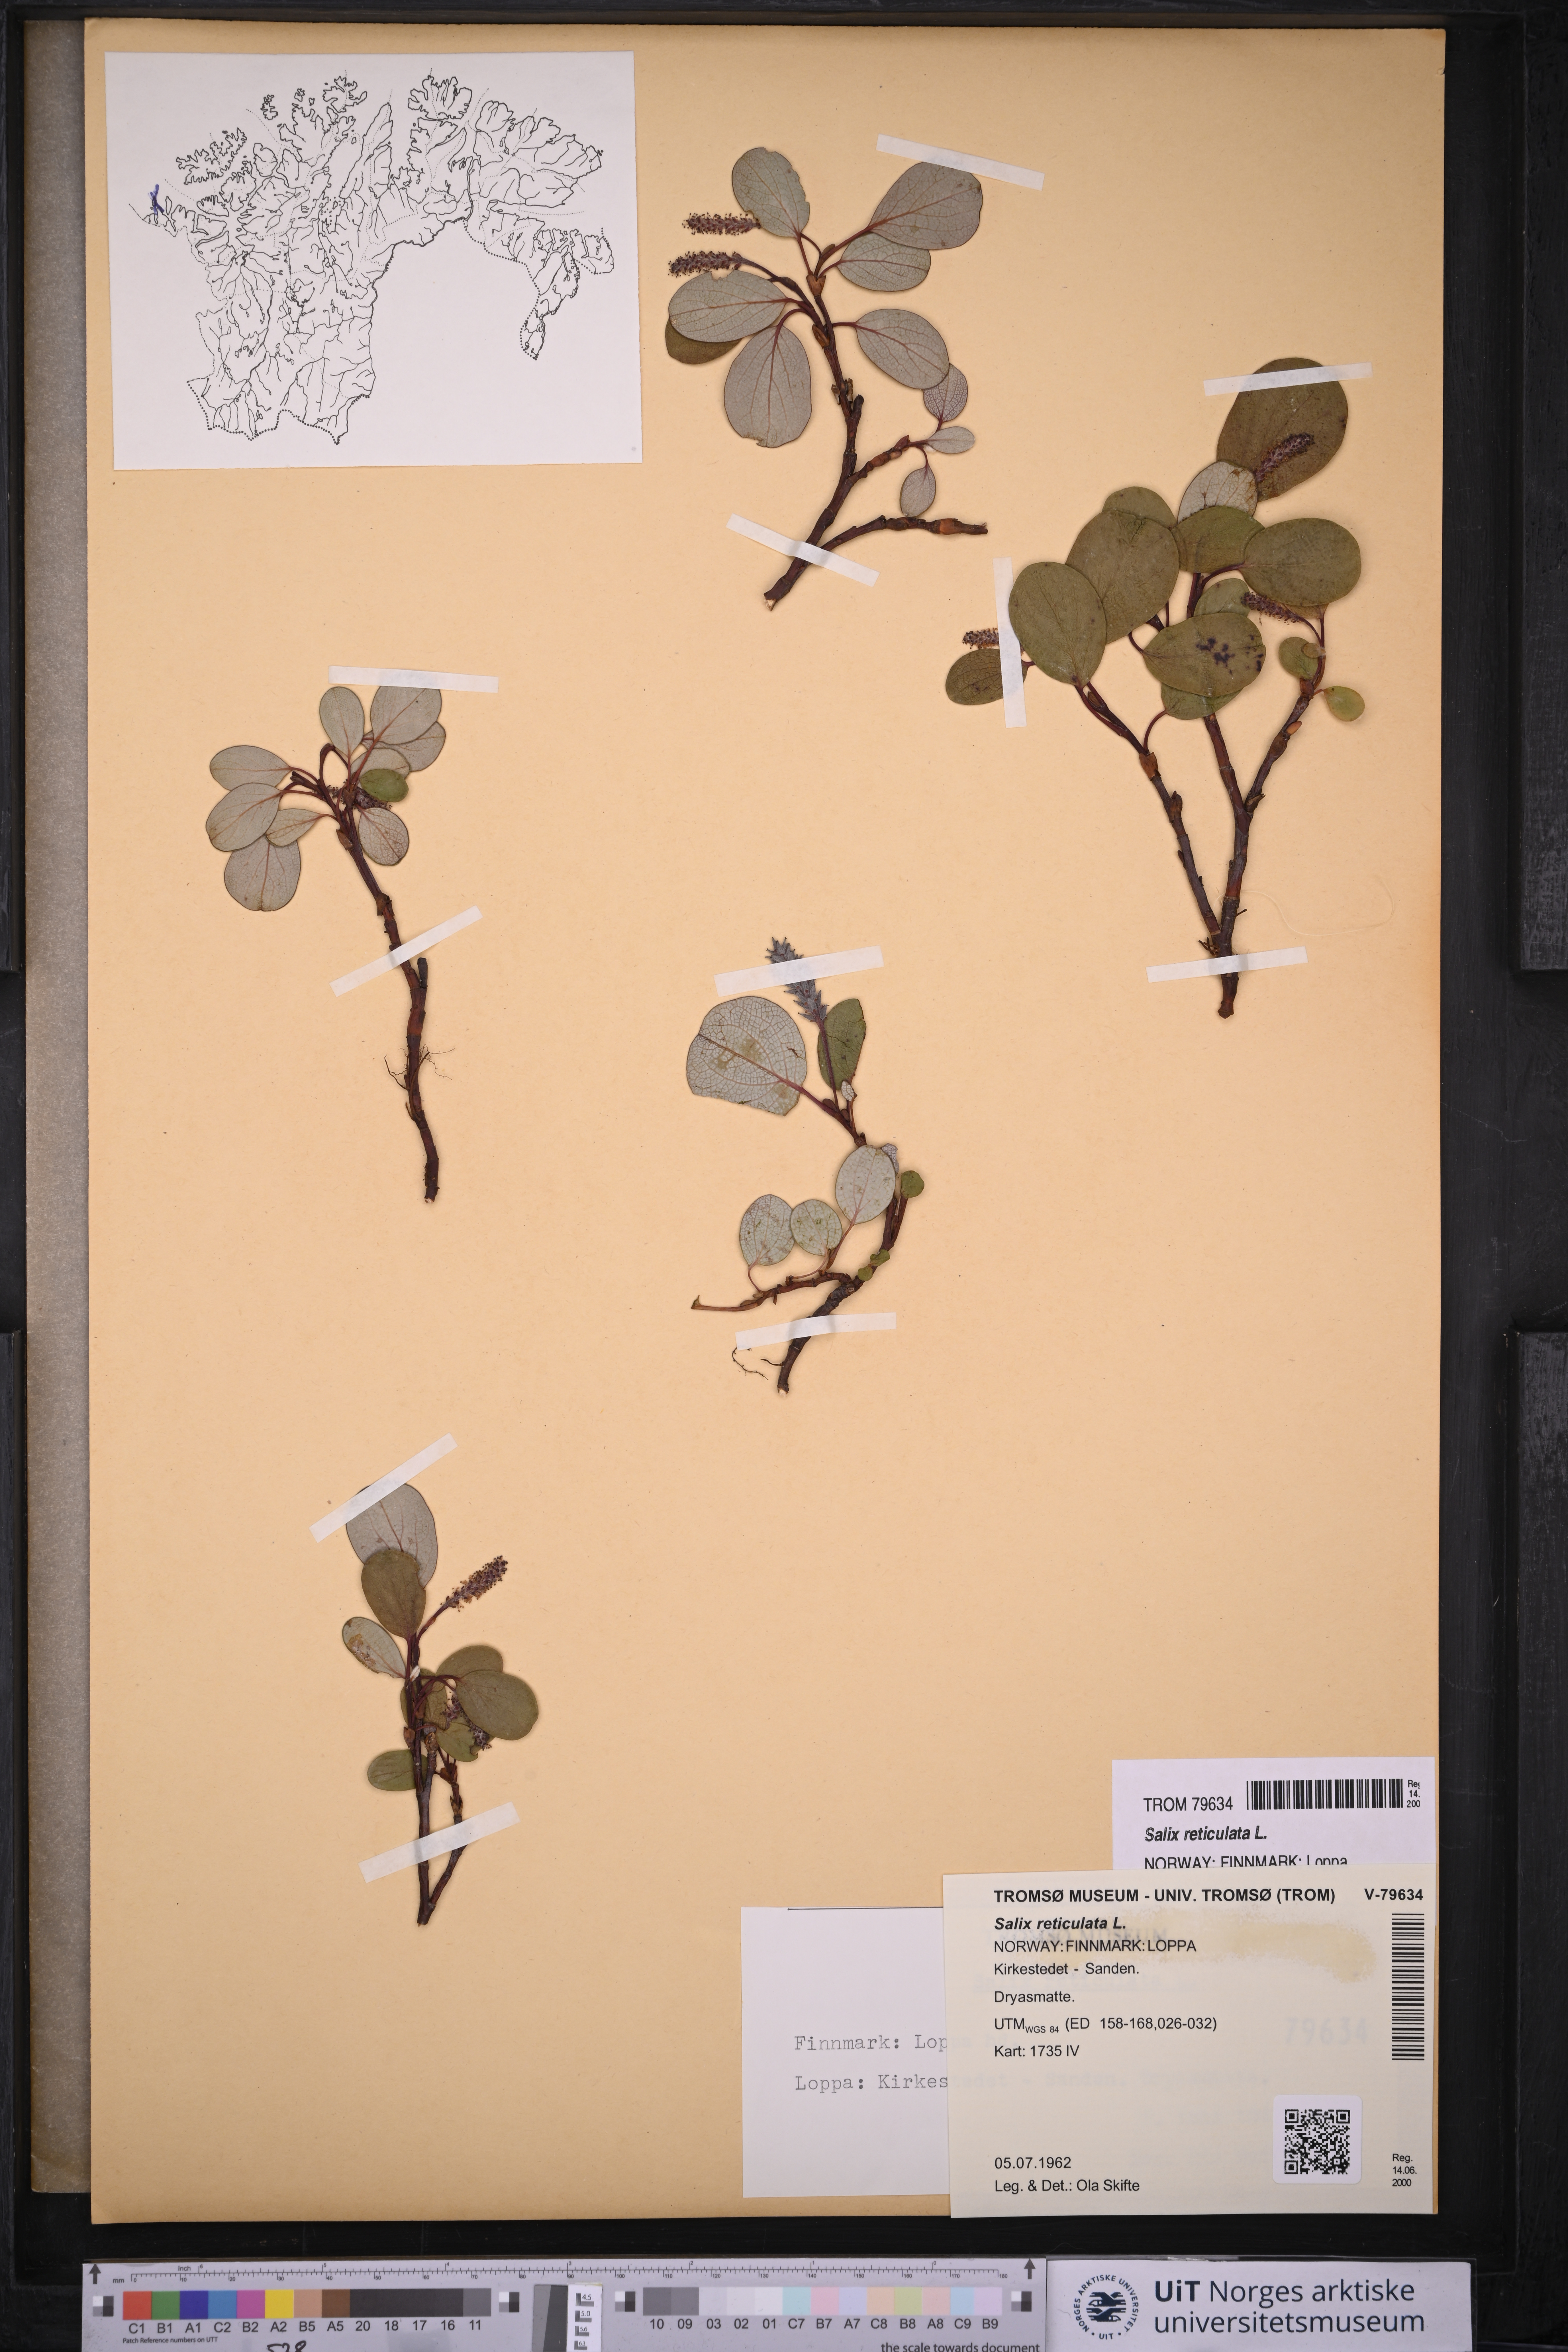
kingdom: Plantae
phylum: Tracheophyta
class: Magnoliopsida
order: Malpighiales
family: Salicaceae
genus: Salix
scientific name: Salix reticulata
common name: Net-leaved willow
